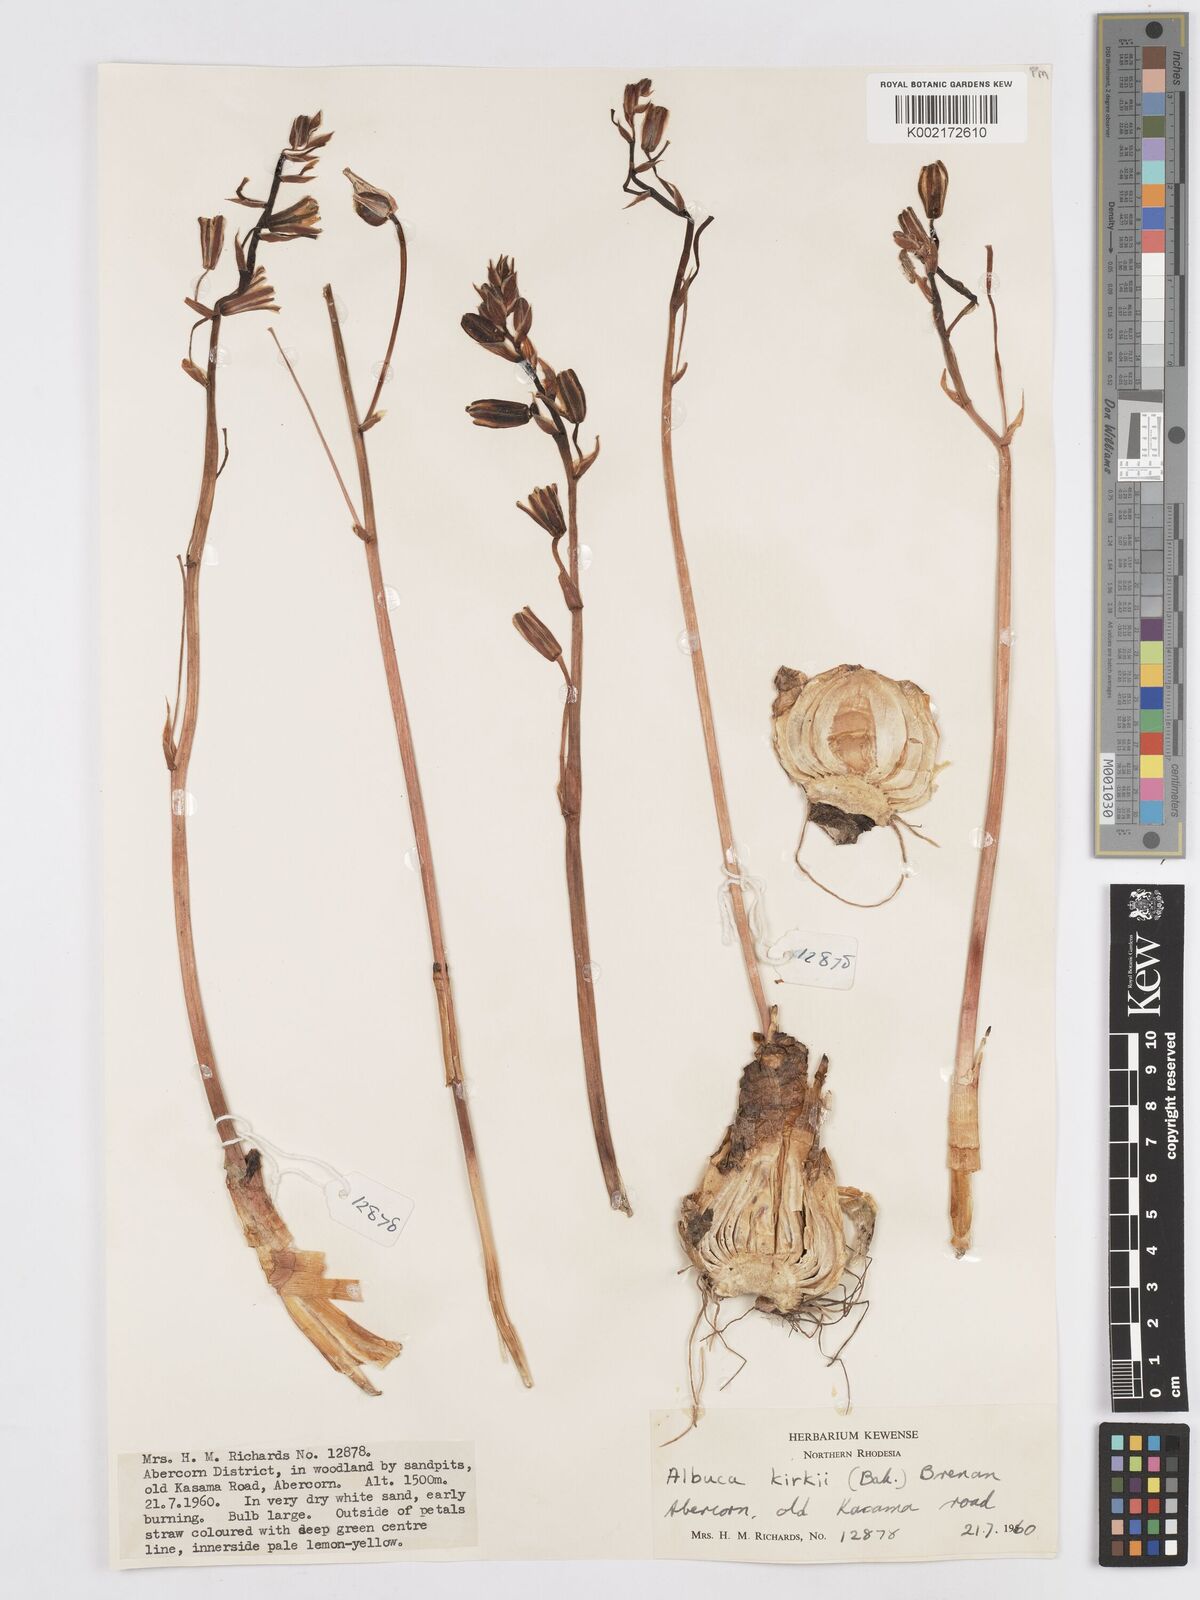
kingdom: Plantae
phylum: Tracheophyta
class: Liliopsida
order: Asparagales
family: Asparagaceae
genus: Albuca
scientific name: Albuca kirkii
